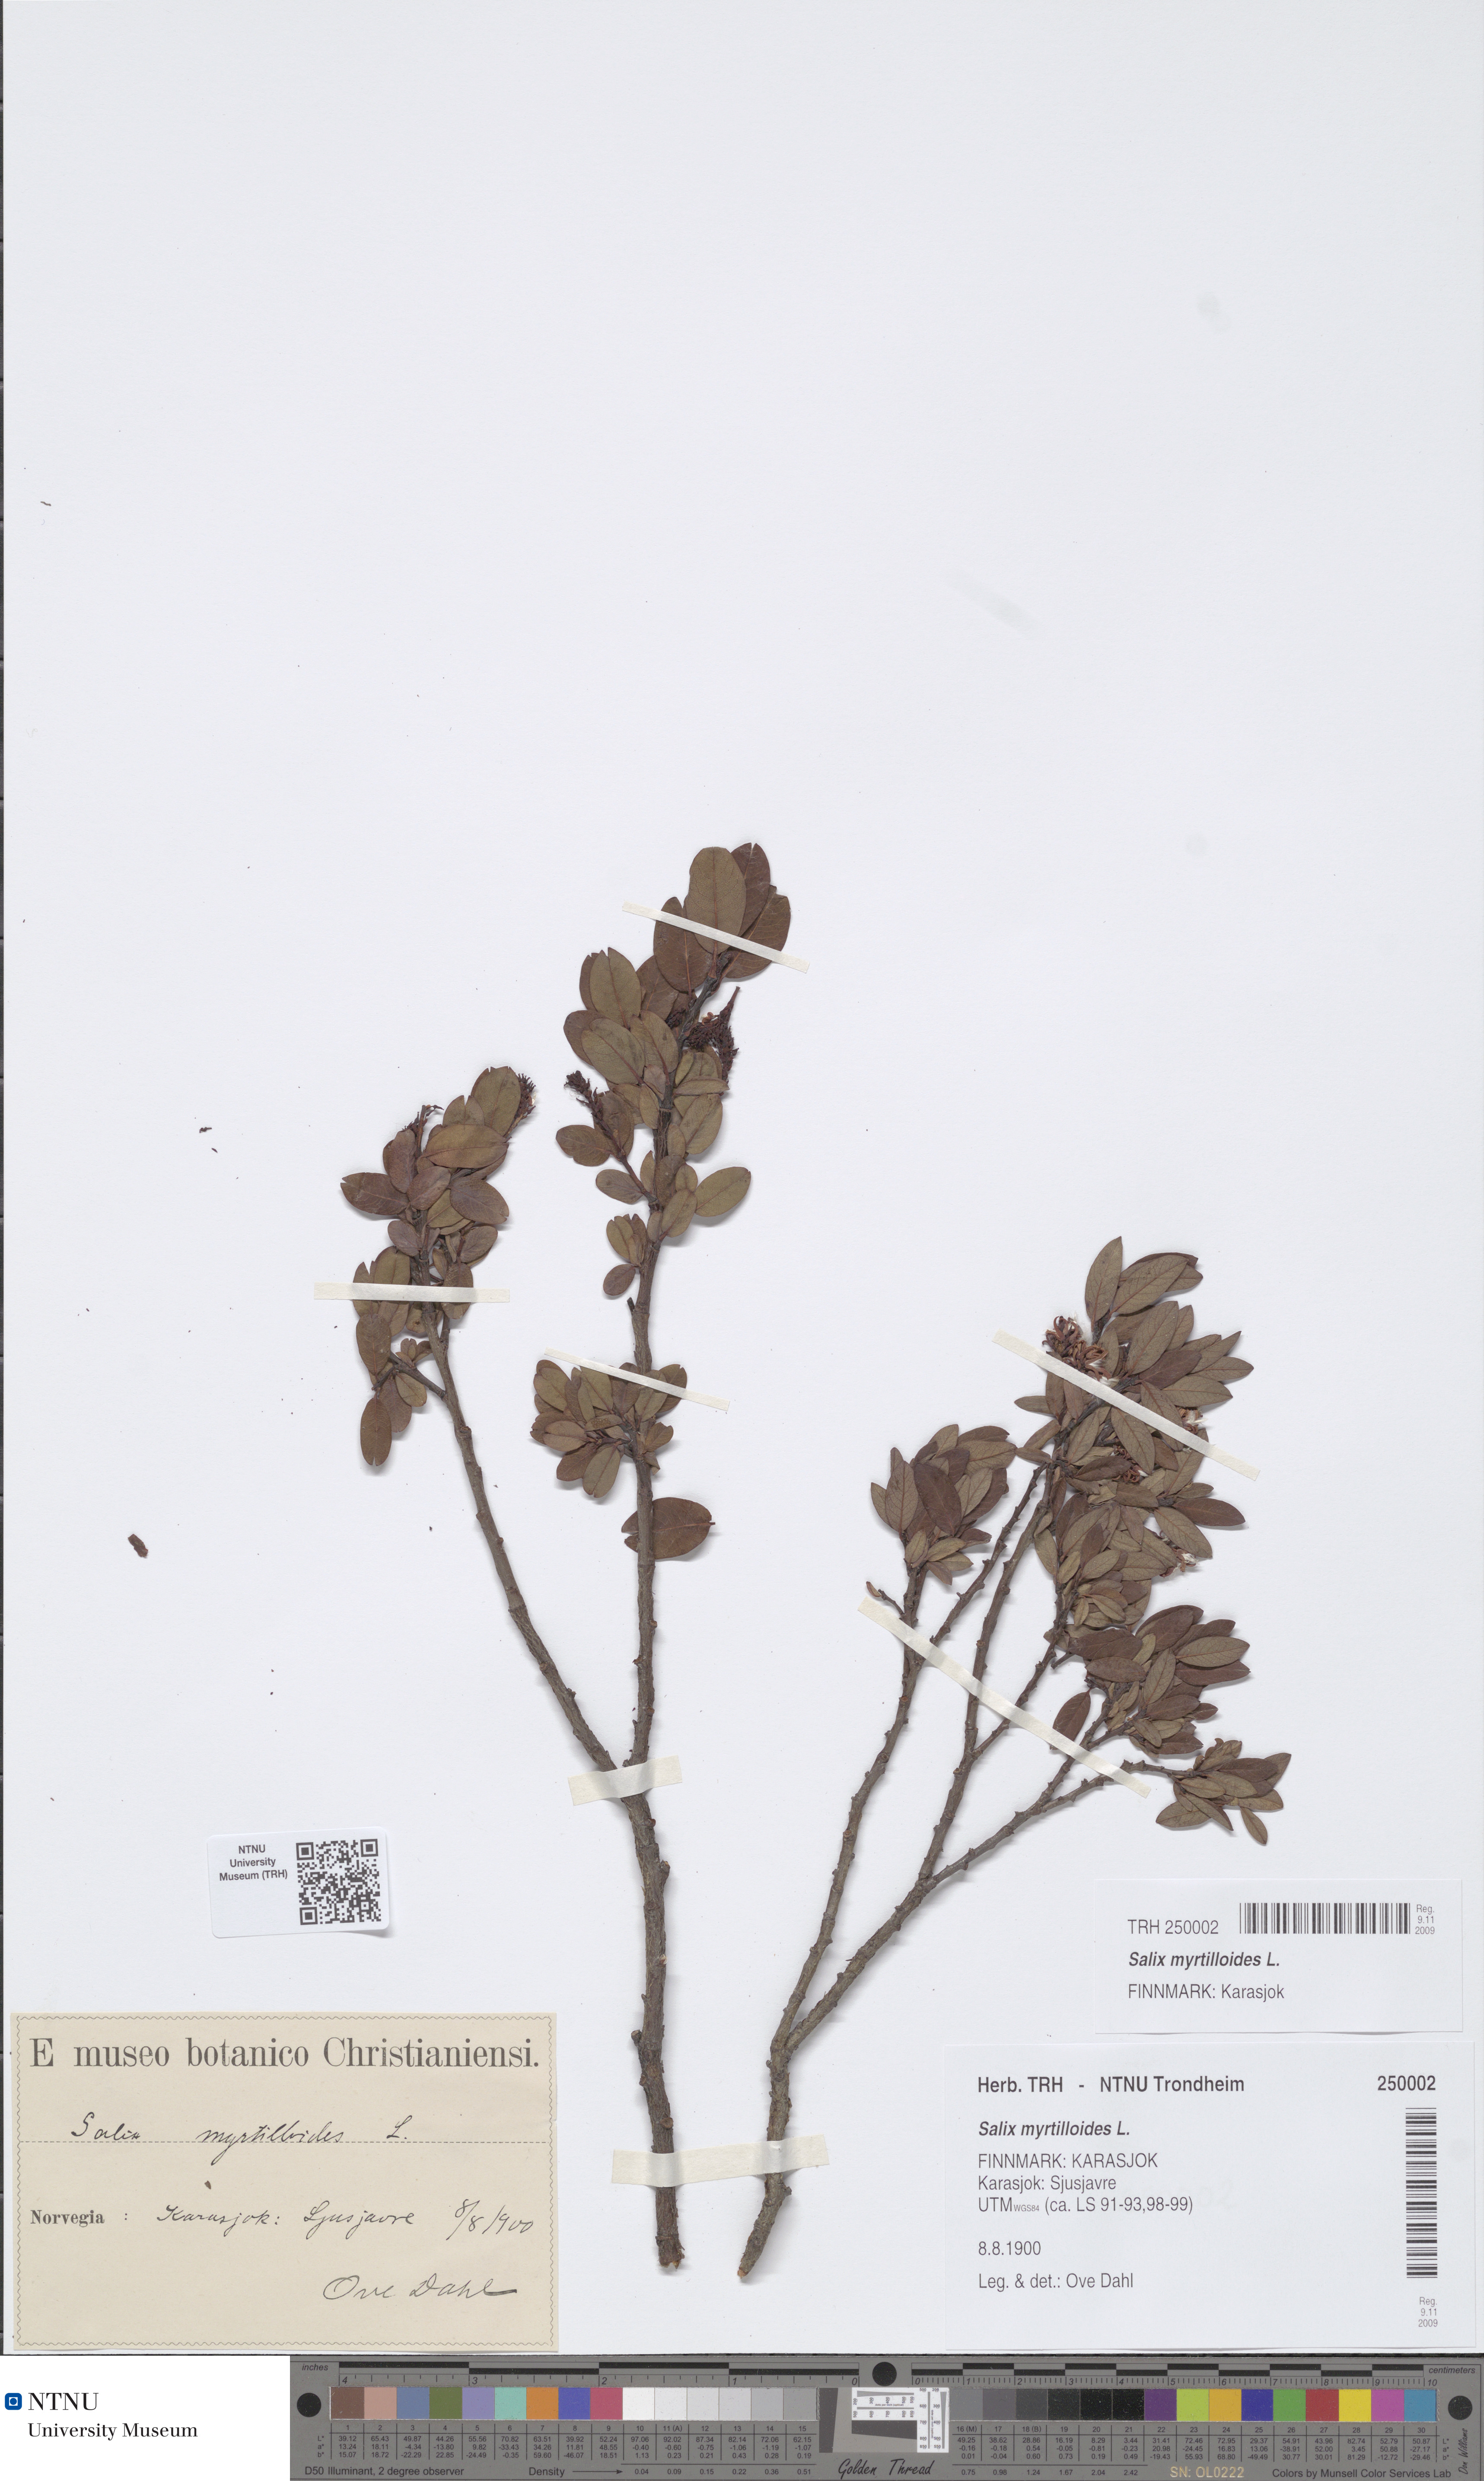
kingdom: Plantae
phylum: Tracheophyta
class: Magnoliopsida
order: Malpighiales
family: Salicaceae
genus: Salix
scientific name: Salix myrtilloides
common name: Myrtle-leaved willow
